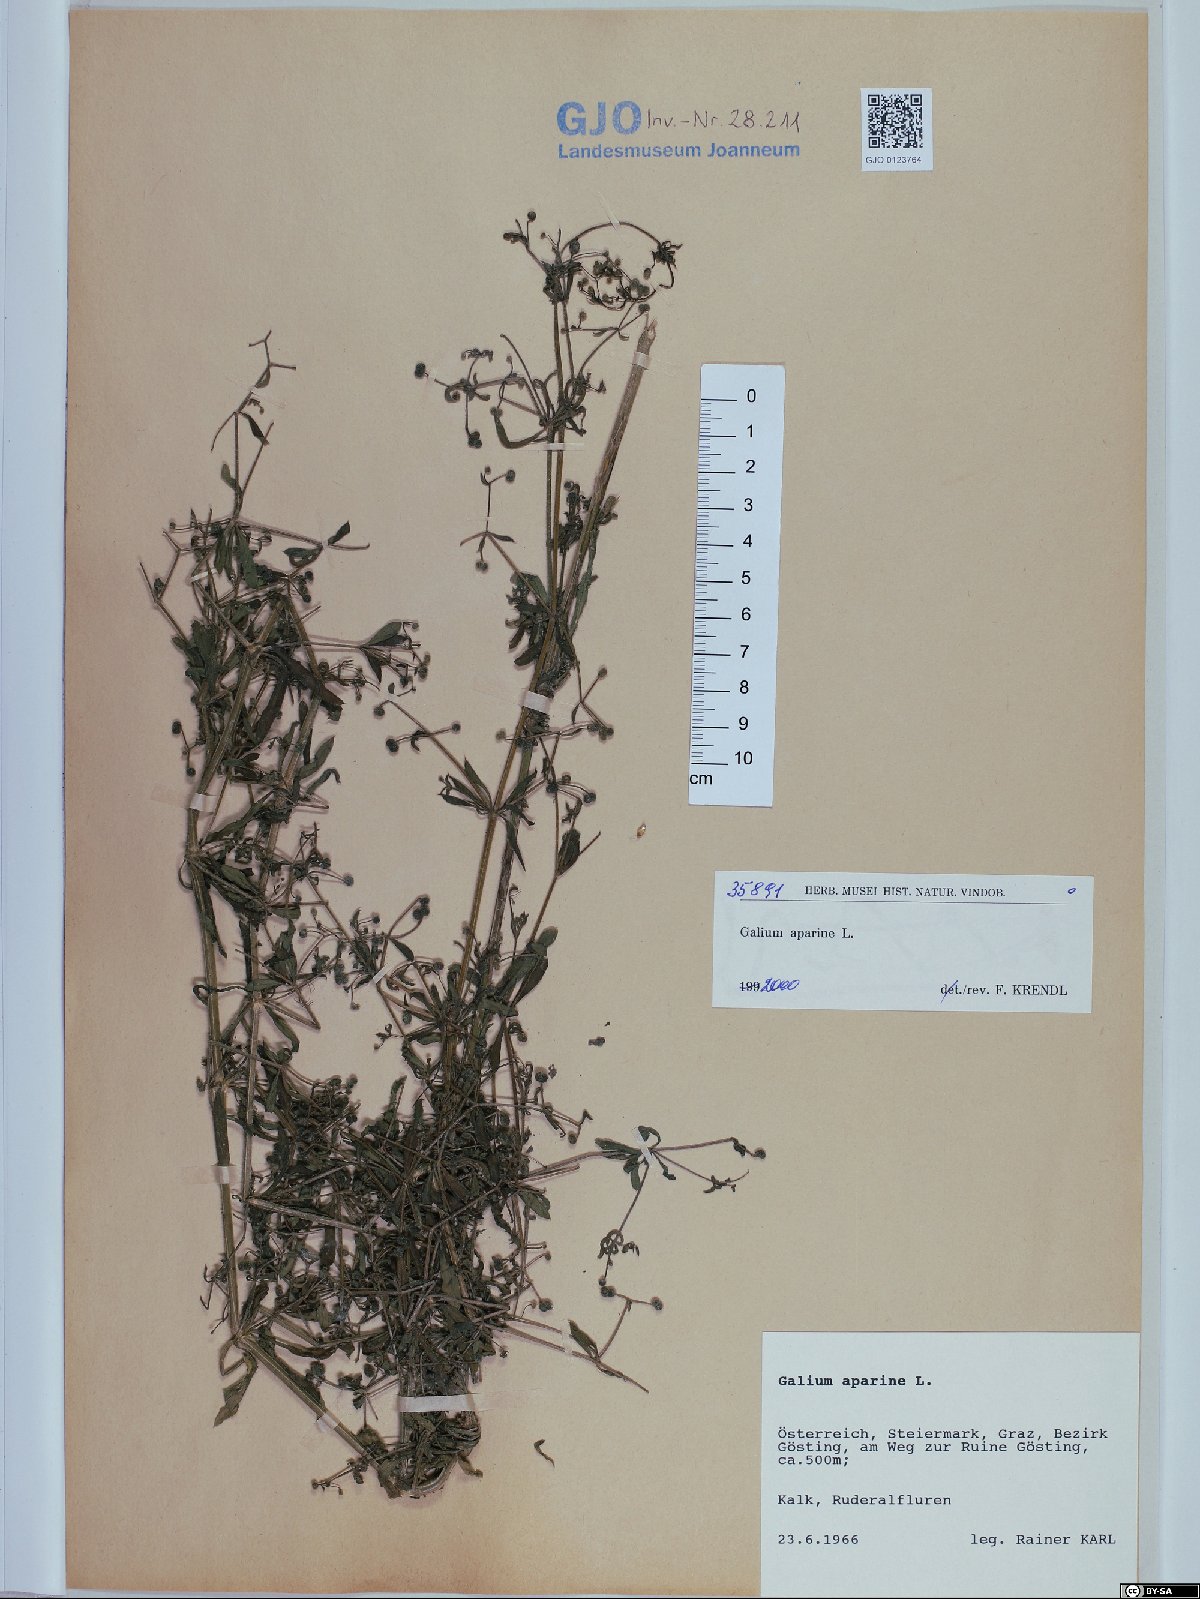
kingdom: Plantae
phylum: Tracheophyta
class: Magnoliopsida
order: Gentianales
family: Rubiaceae
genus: Galium
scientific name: Galium aparine
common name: Cleavers
